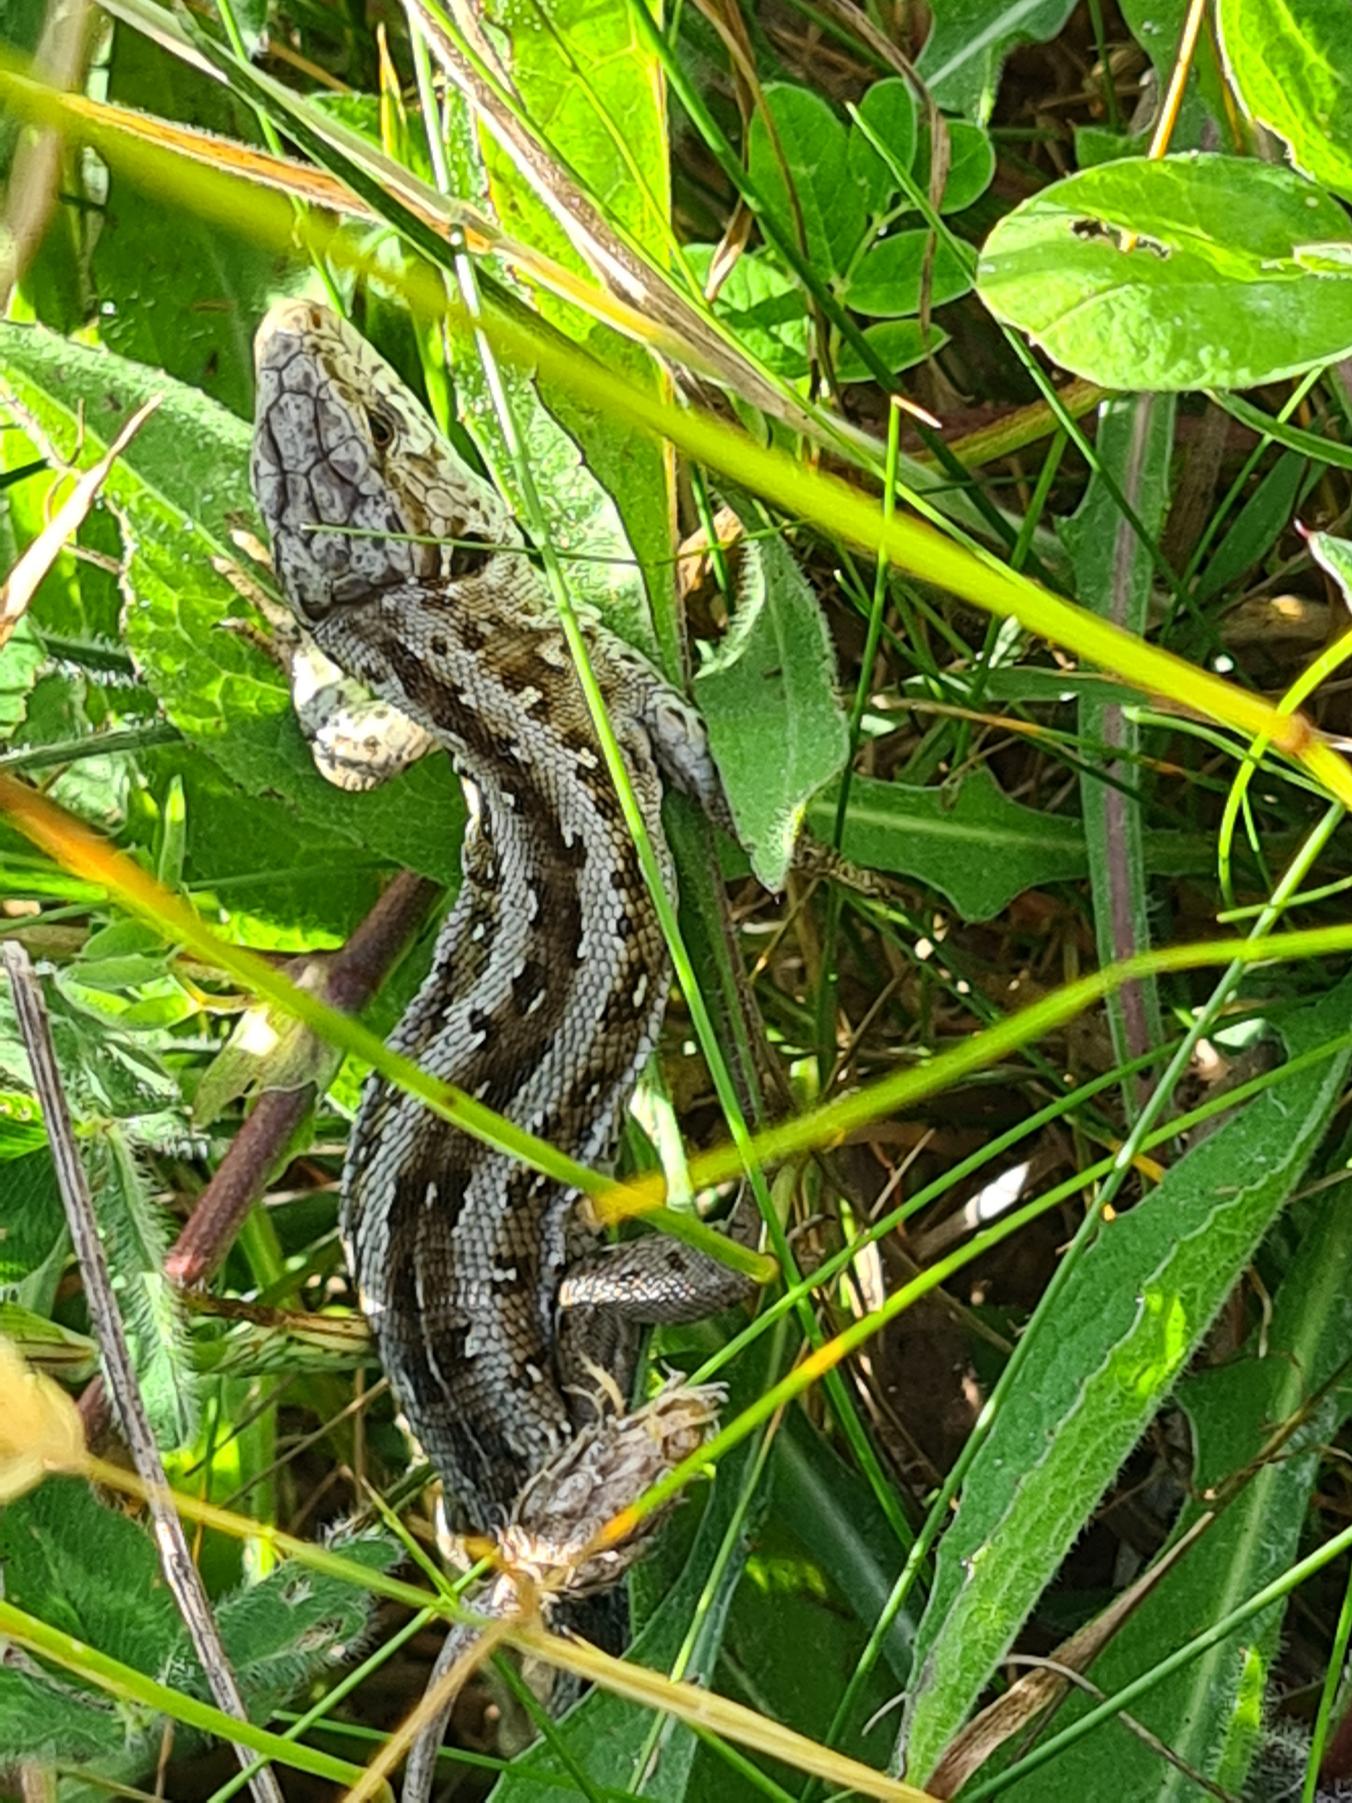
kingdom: Animalia
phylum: Chordata
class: Squamata
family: Lacertidae
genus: Lacerta
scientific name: Lacerta agilis
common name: Markfirben
